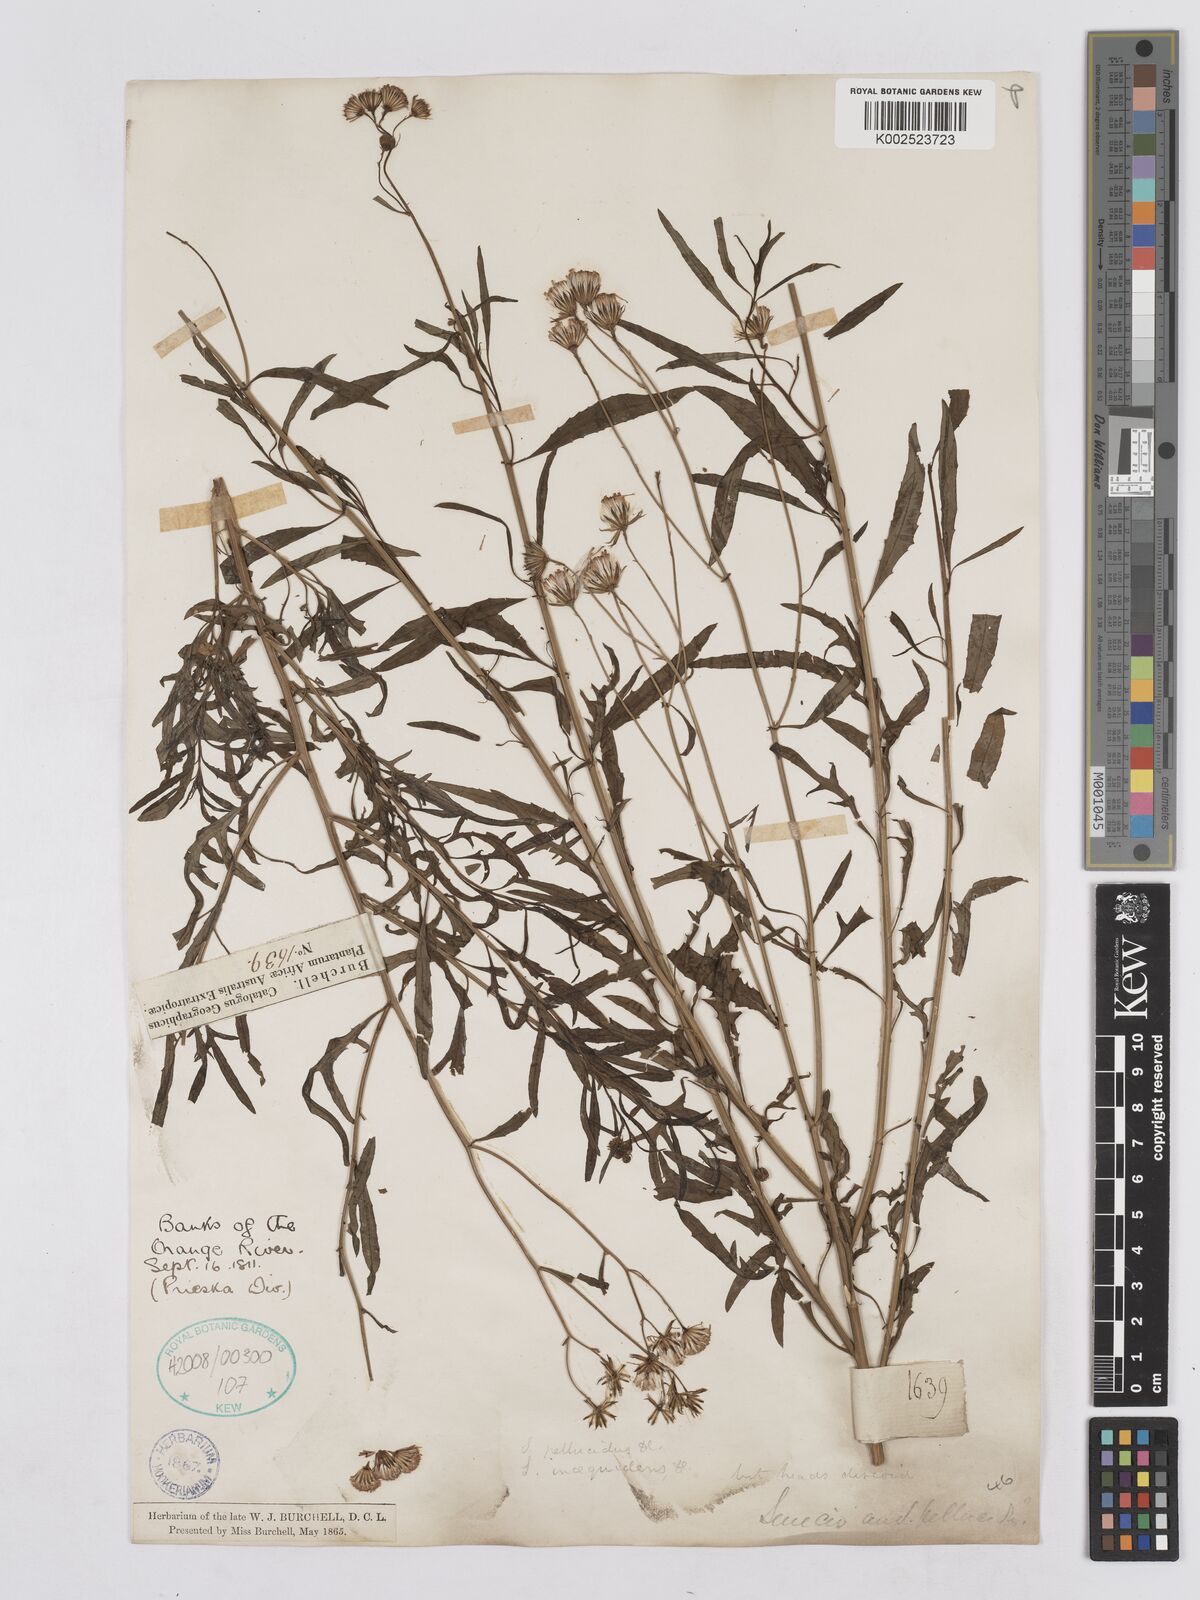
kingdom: Plantae
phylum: Tracheophyta
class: Magnoliopsida
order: Asterales
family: Asteraceae
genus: Senecio
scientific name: Senecio burchellii
